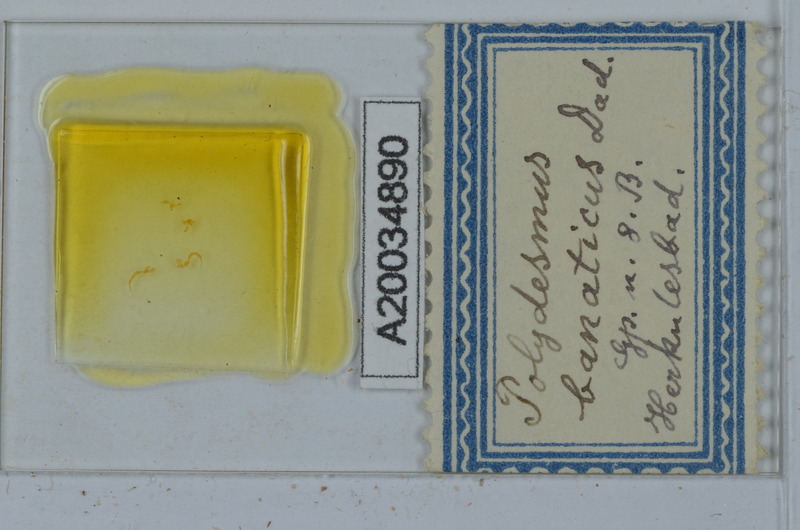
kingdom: Animalia
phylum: Arthropoda
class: Diplopoda
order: Polydesmida
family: Polydesmidae
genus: Polydesmus
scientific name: Polydesmus subscabratus
